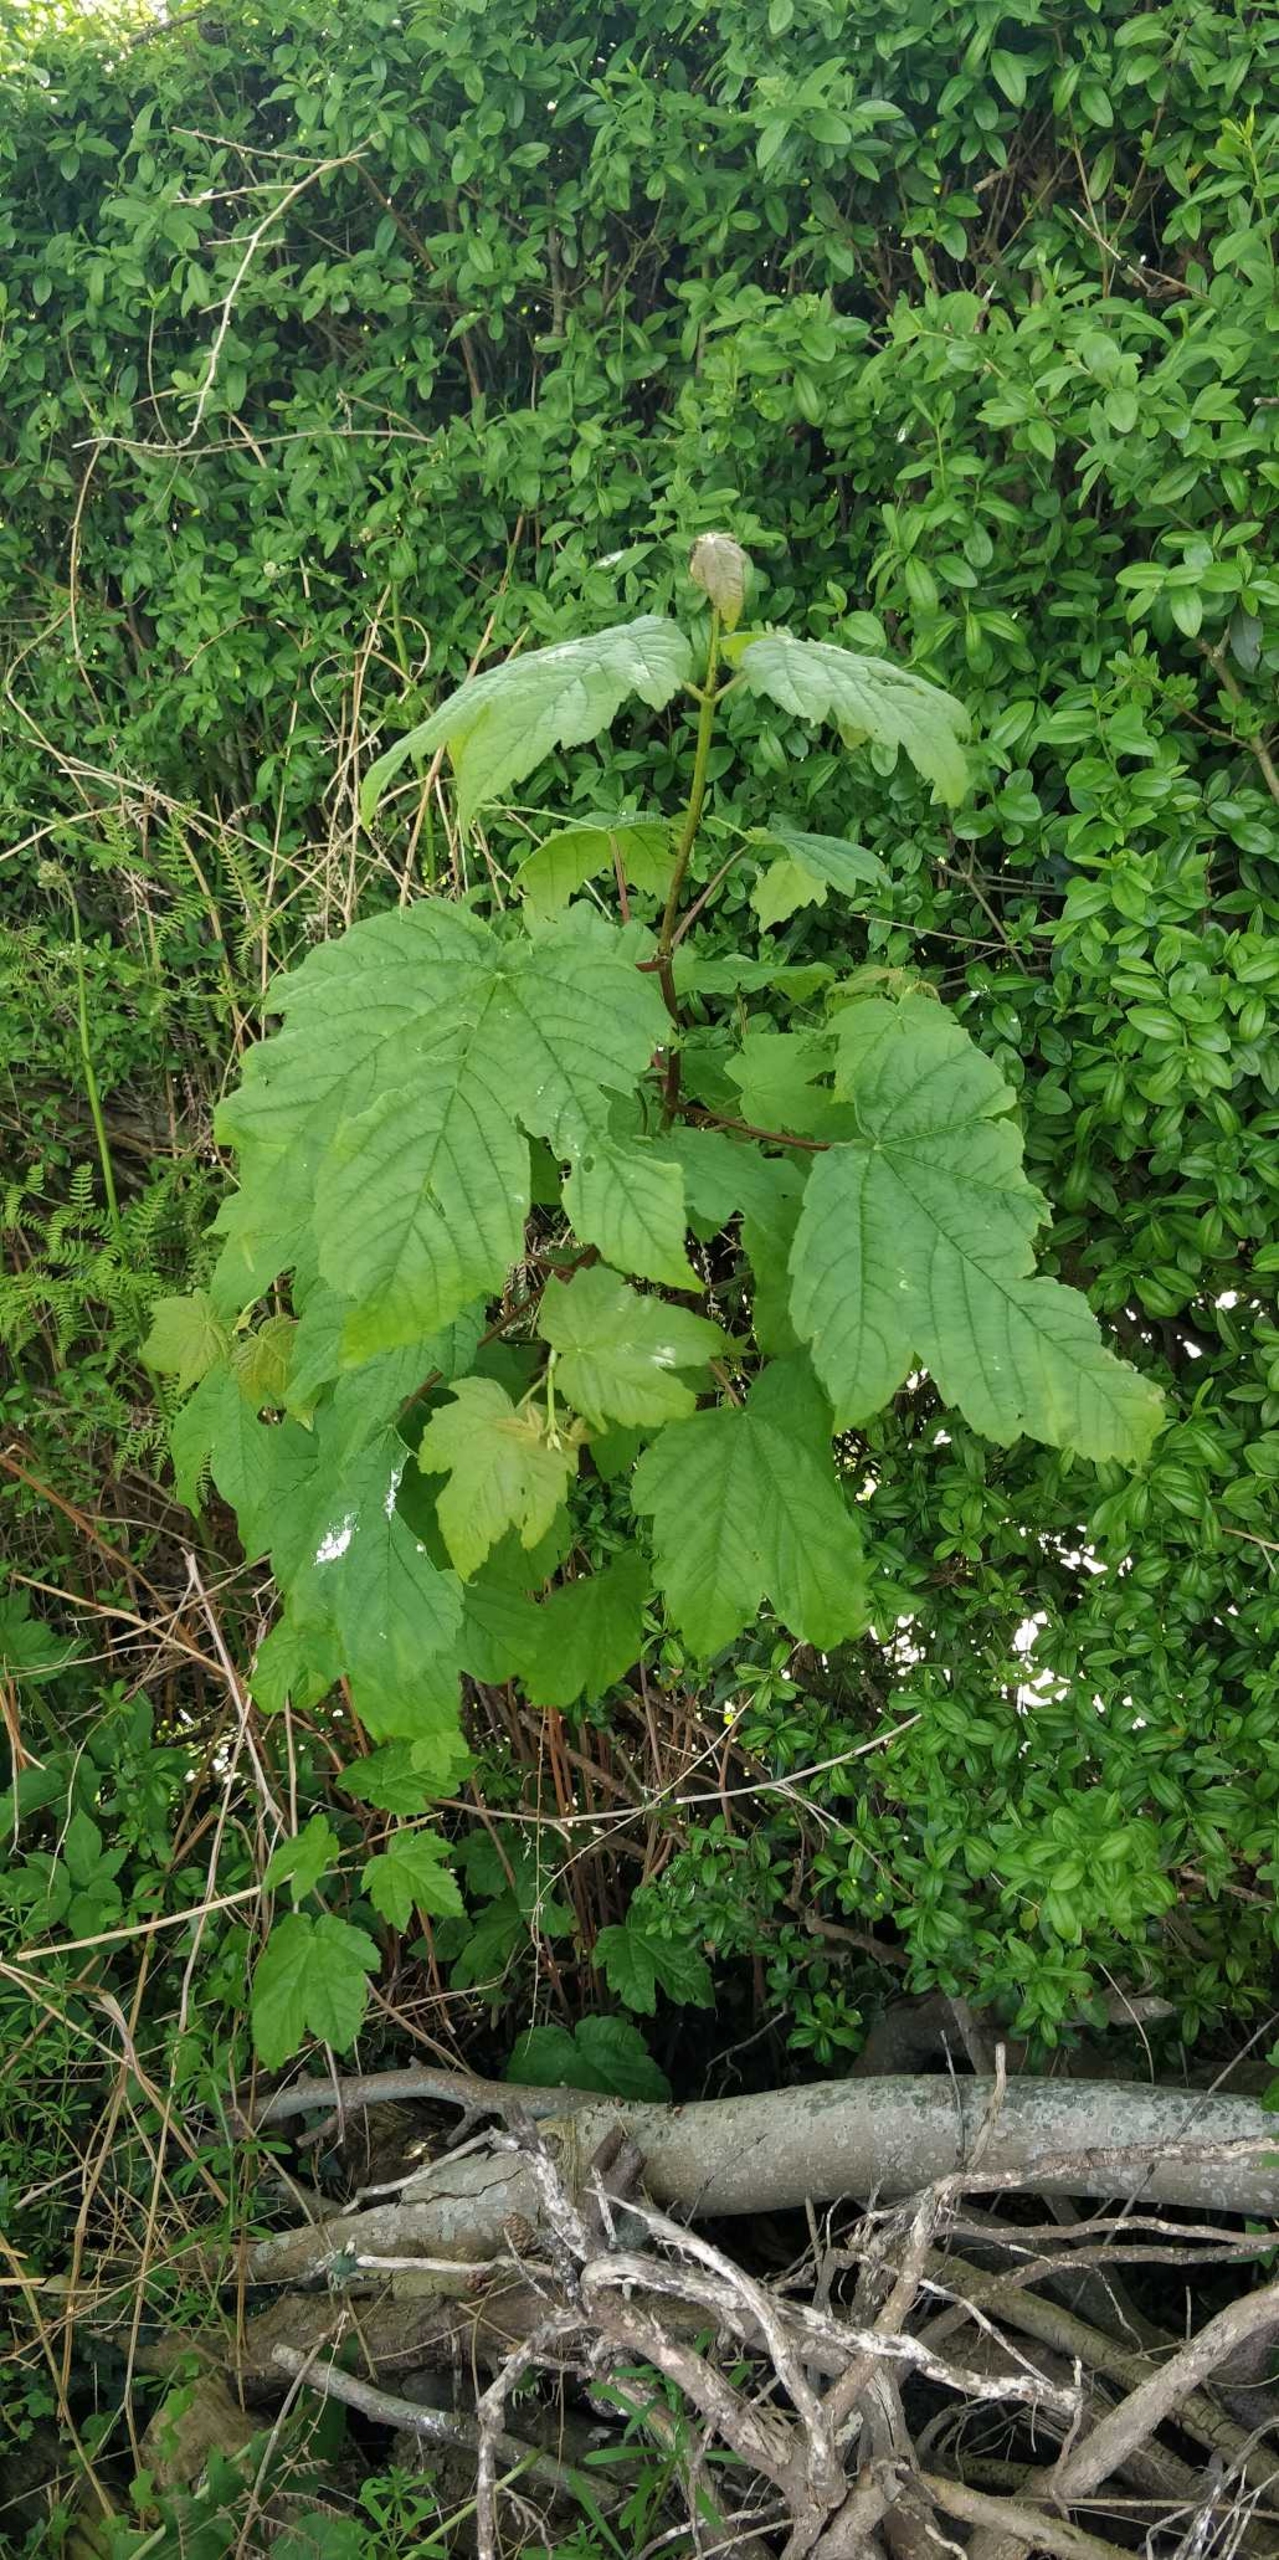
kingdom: Plantae
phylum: Tracheophyta
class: Magnoliopsida
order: Sapindales
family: Sapindaceae
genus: Acer
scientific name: Acer pseudoplatanus
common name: Ahorn
